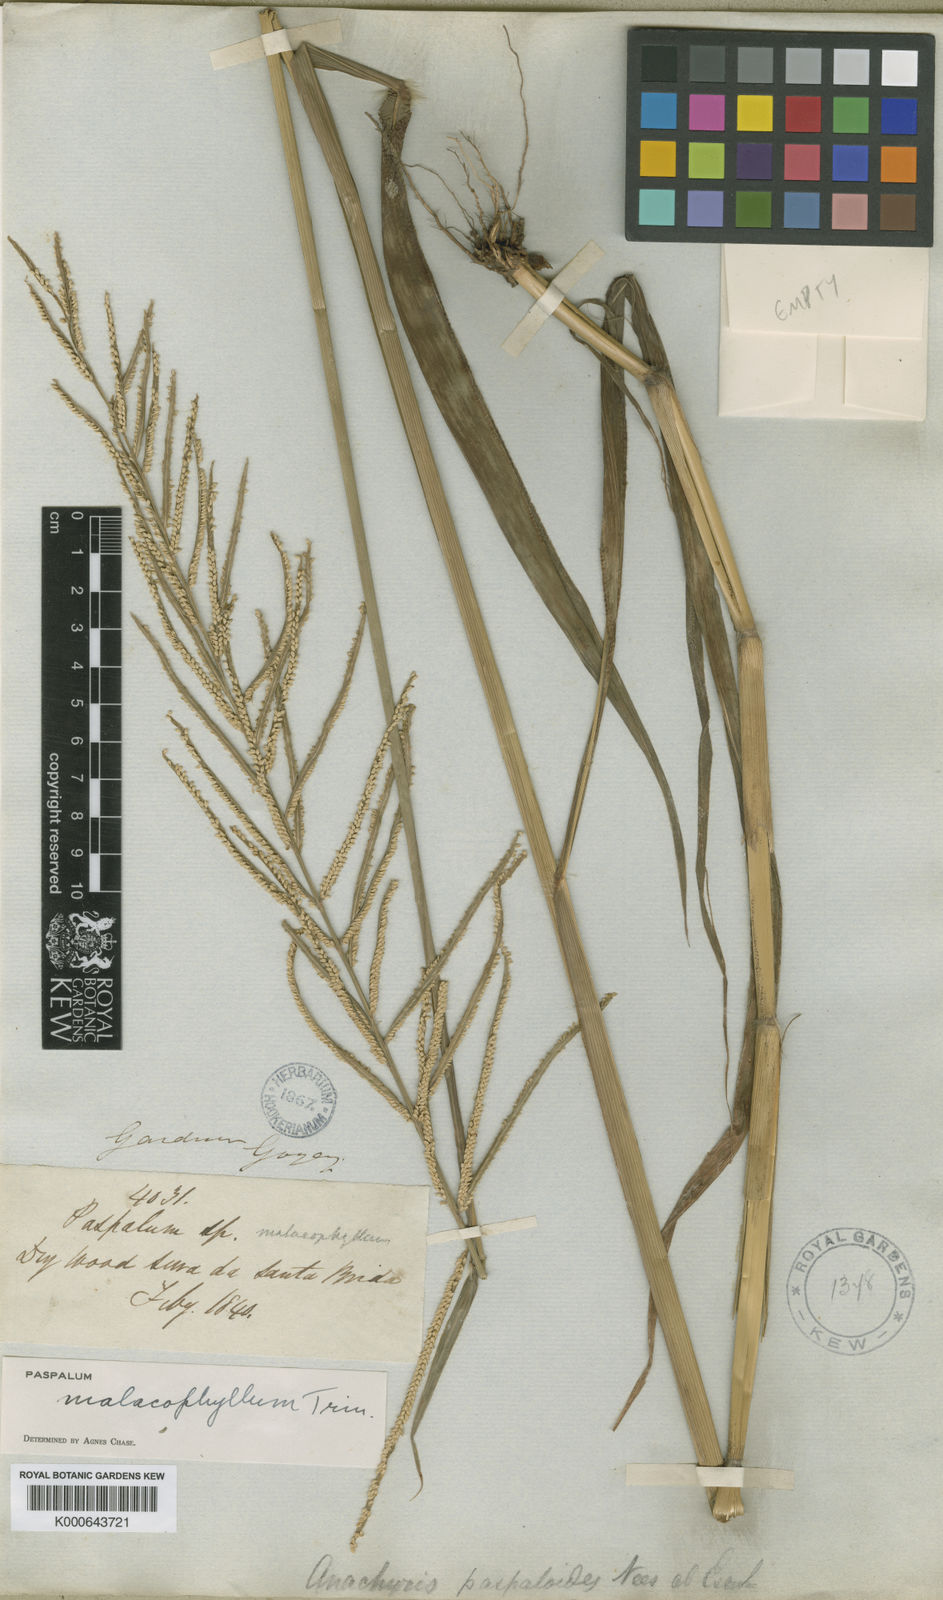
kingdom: Plantae
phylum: Tracheophyta
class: Liliopsida
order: Poales
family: Poaceae
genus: Paspalum
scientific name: Paspalum malacophyllum
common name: Ribbed paspalum
